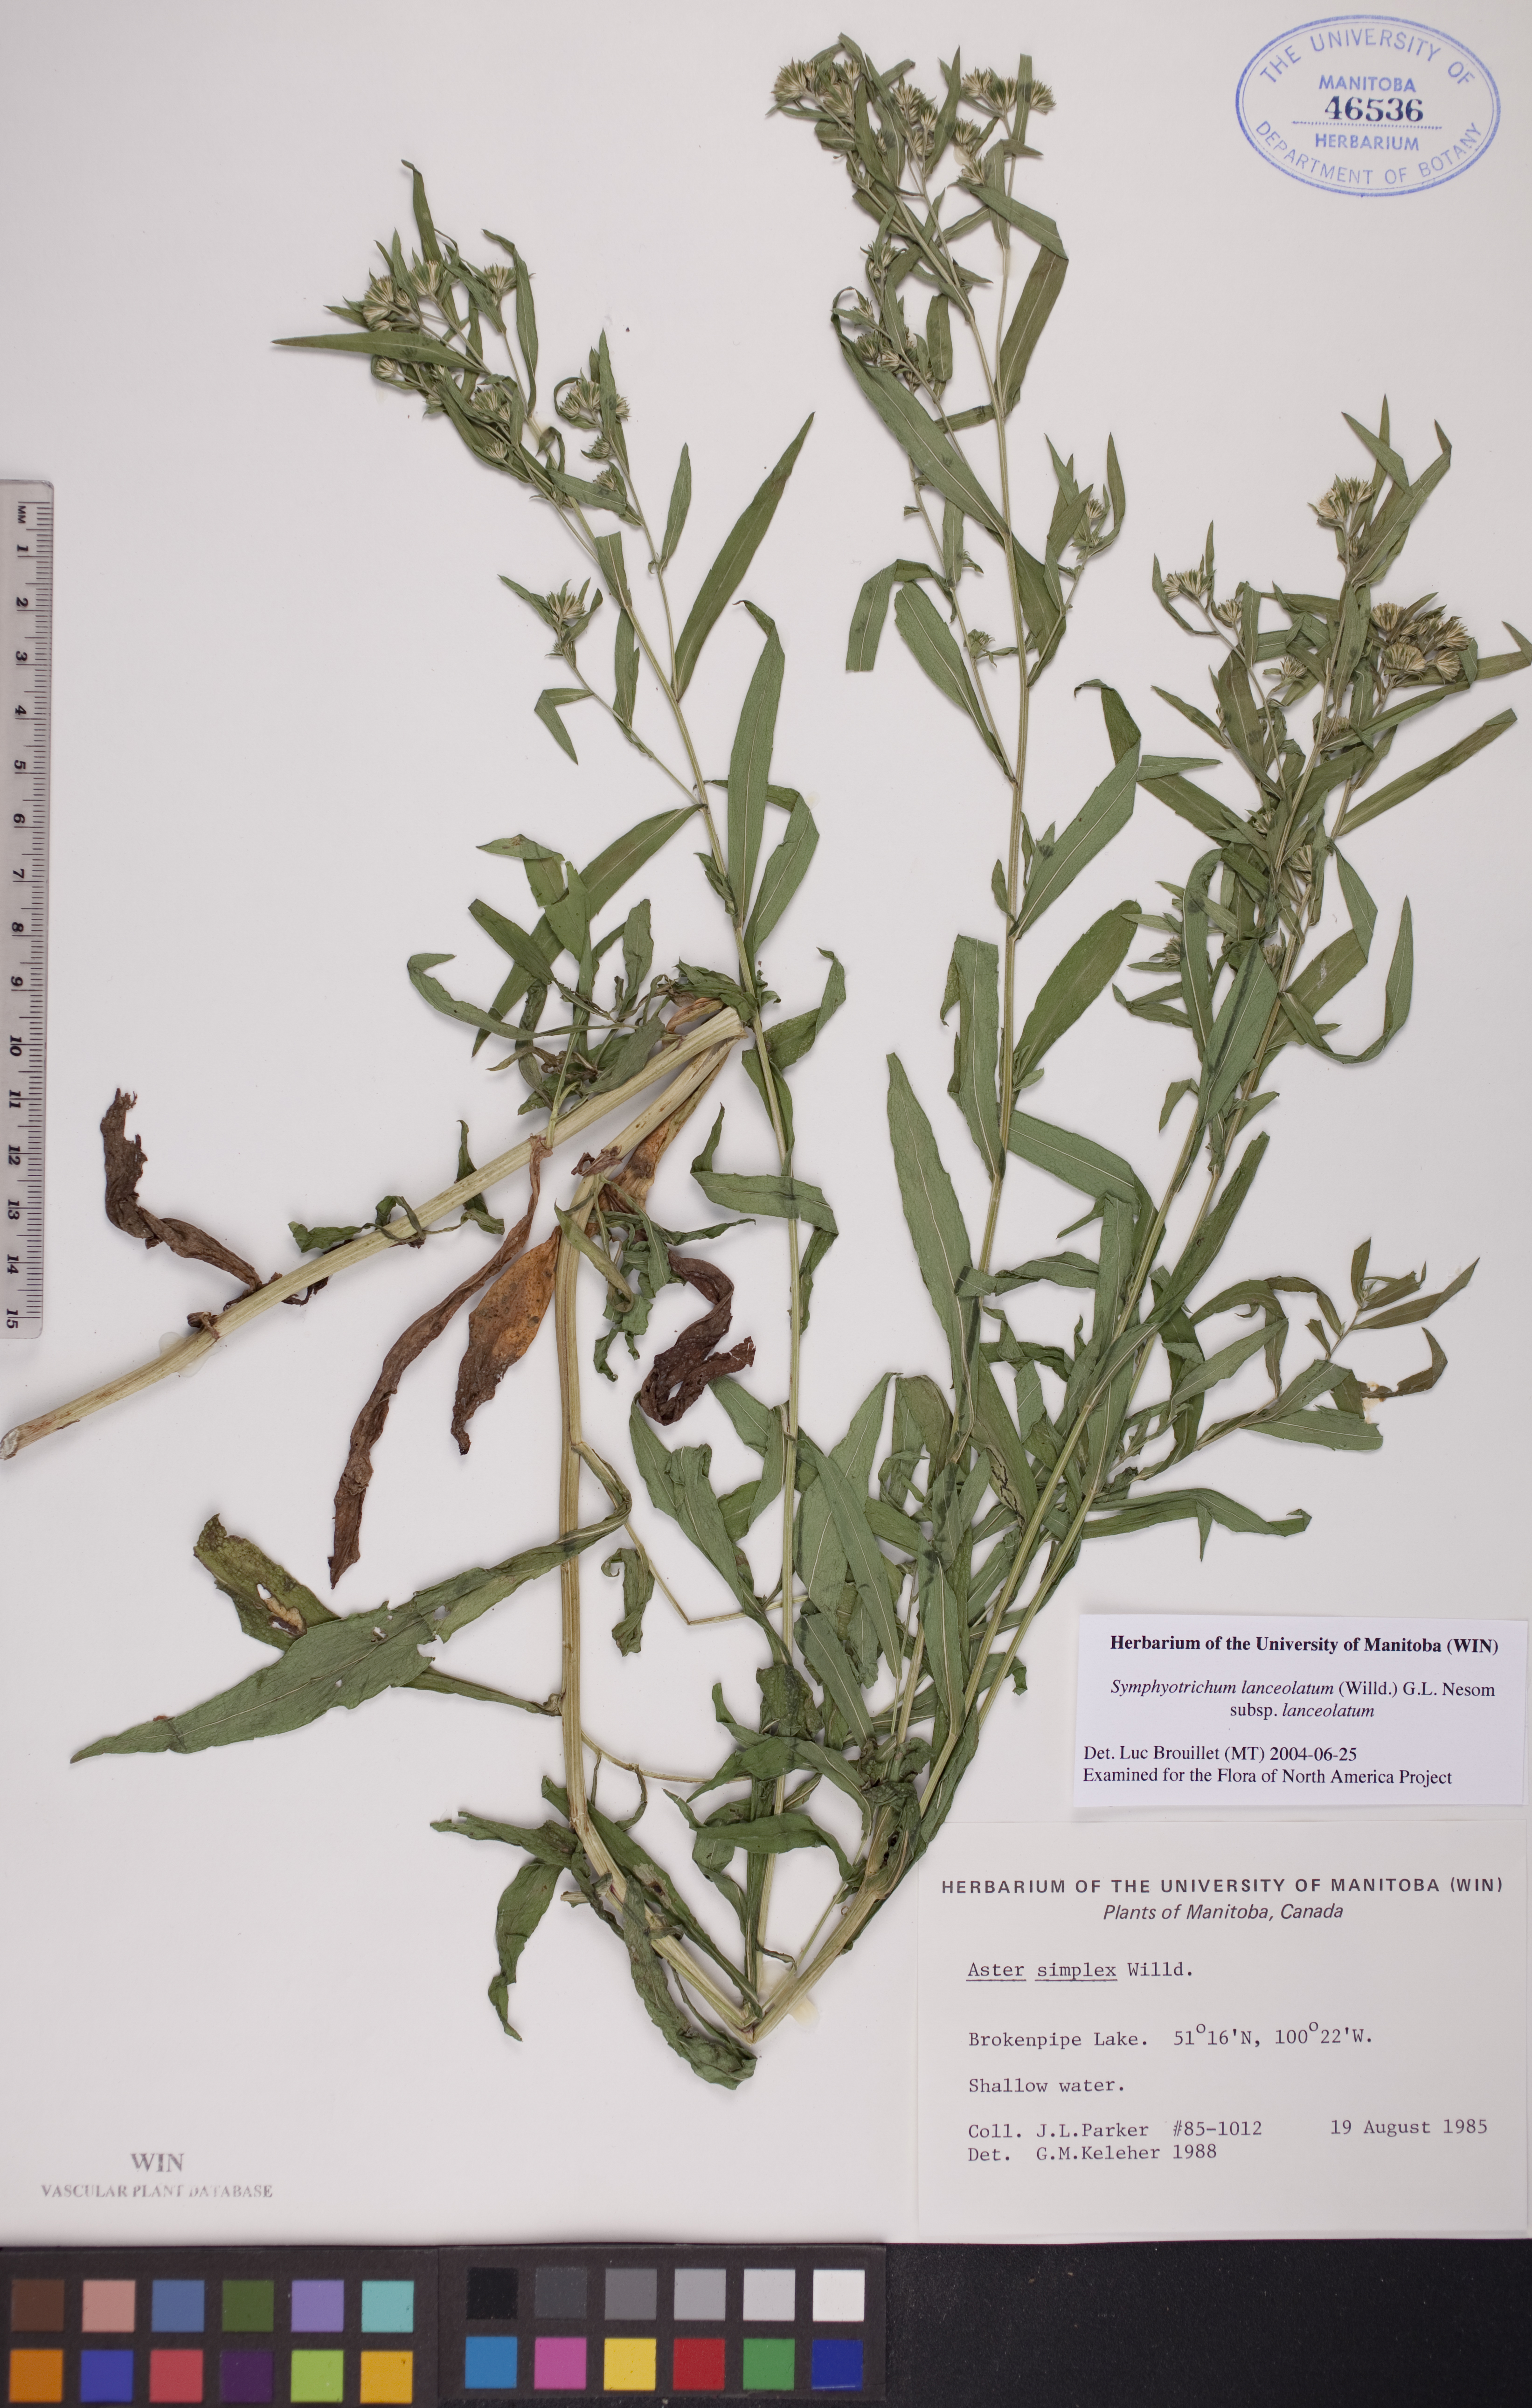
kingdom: Plantae
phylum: Tracheophyta
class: Magnoliopsida
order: Asterales
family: Asteraceae
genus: Symphyotrichum
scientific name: Symphyotrichum lanceolatum
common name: Panicled aster
